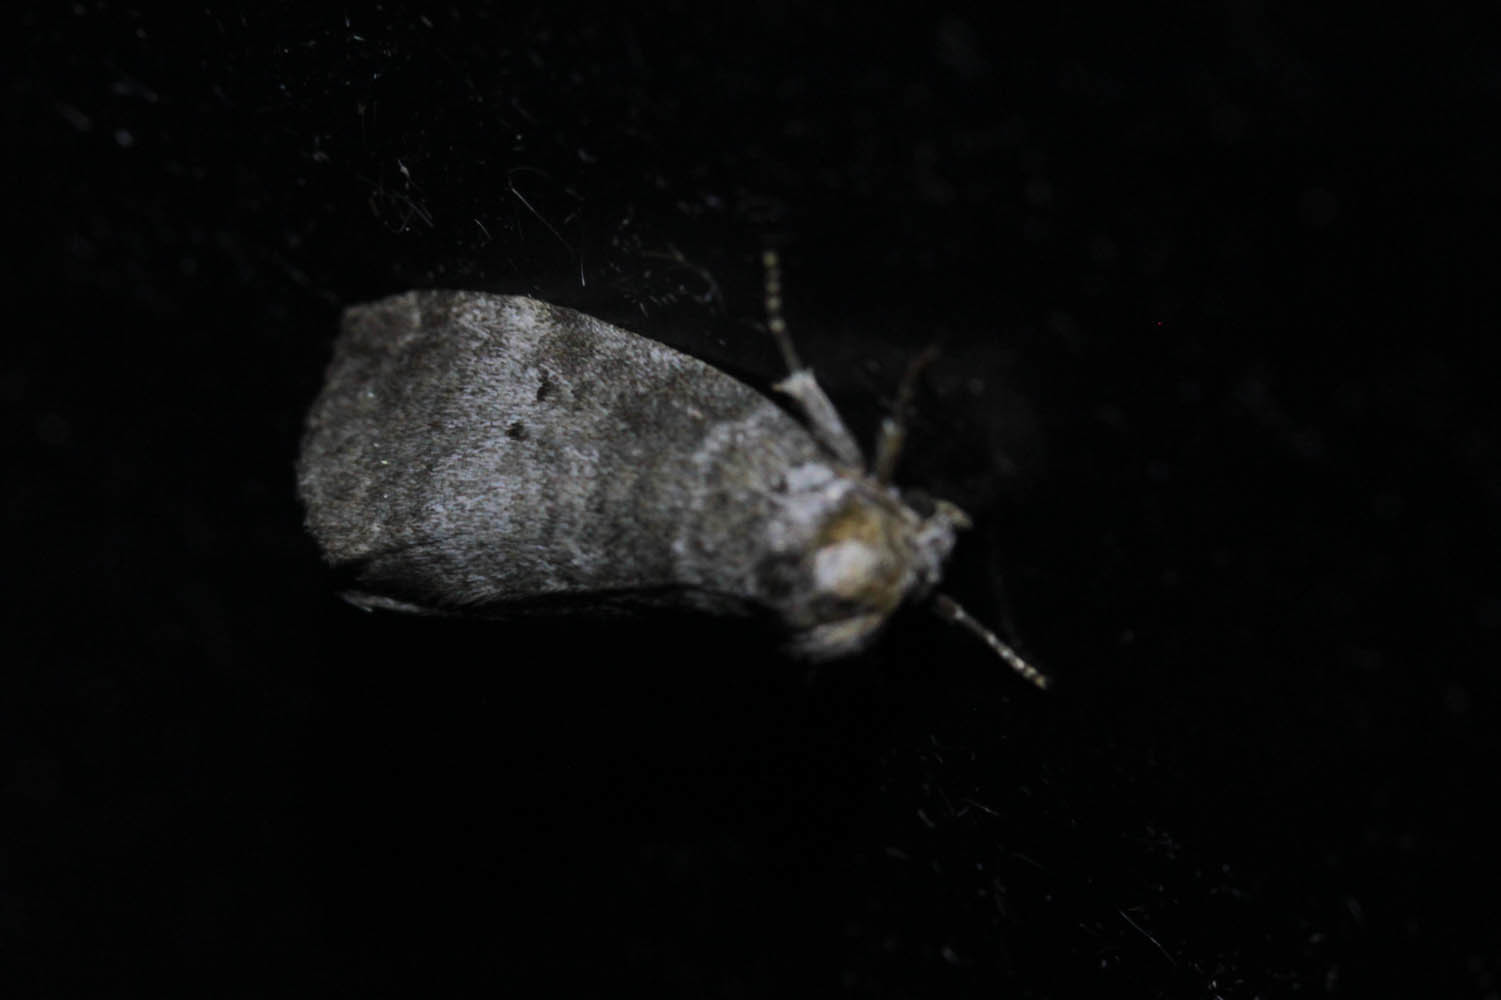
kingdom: Animalia
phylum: Arthropoda
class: Insecta
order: Lepidoptera
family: Drepanidae
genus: Ochropacha
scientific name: Ochropacha duplaris
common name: Common lutestring
